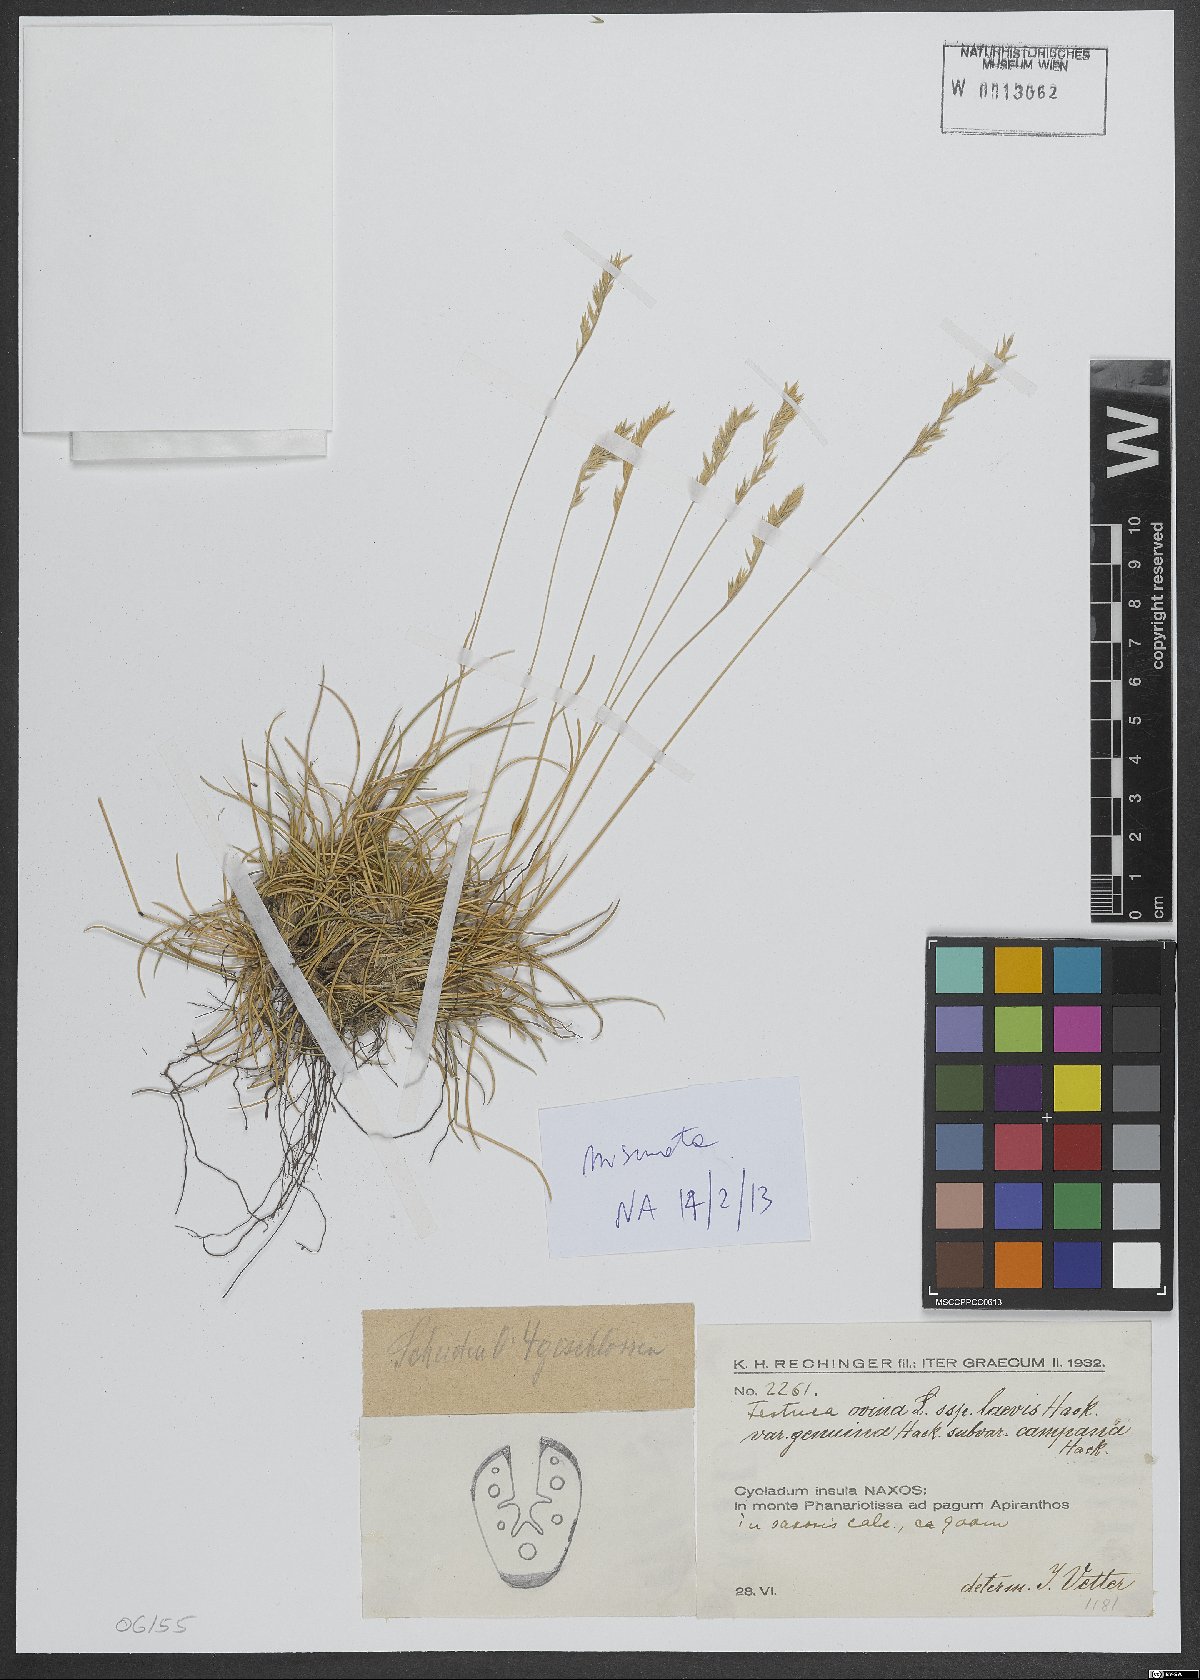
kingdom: Plantae
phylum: Tracheophyta
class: Liliopsida
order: Poales
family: Poaceae
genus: Festuca
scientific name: Festuca circummediterranea
